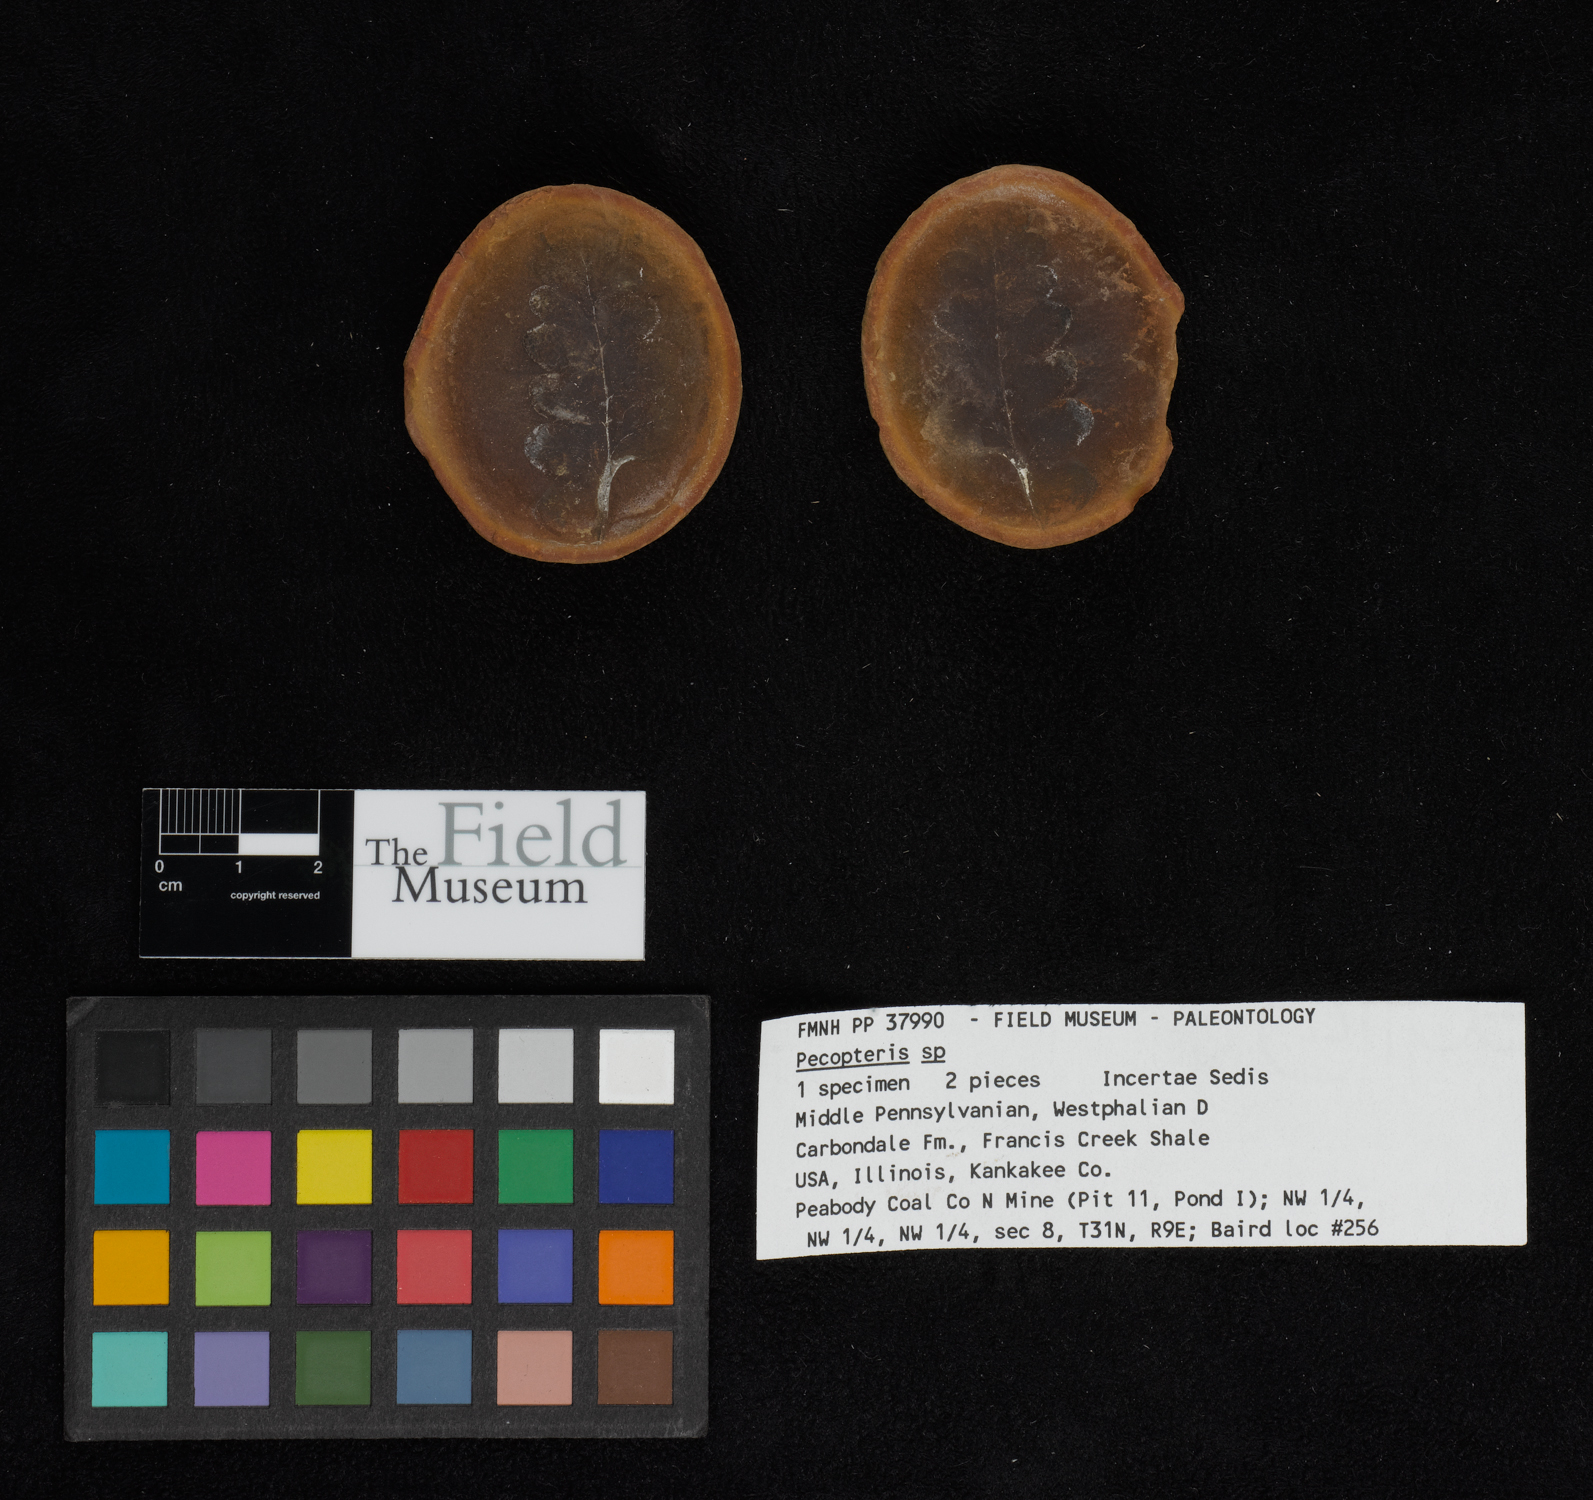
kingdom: Plantae
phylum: Tracheophyta
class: Polypodiopsida
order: Marattiales
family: Asterothecaceae
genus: Pecopteris
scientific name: Pecopteris
